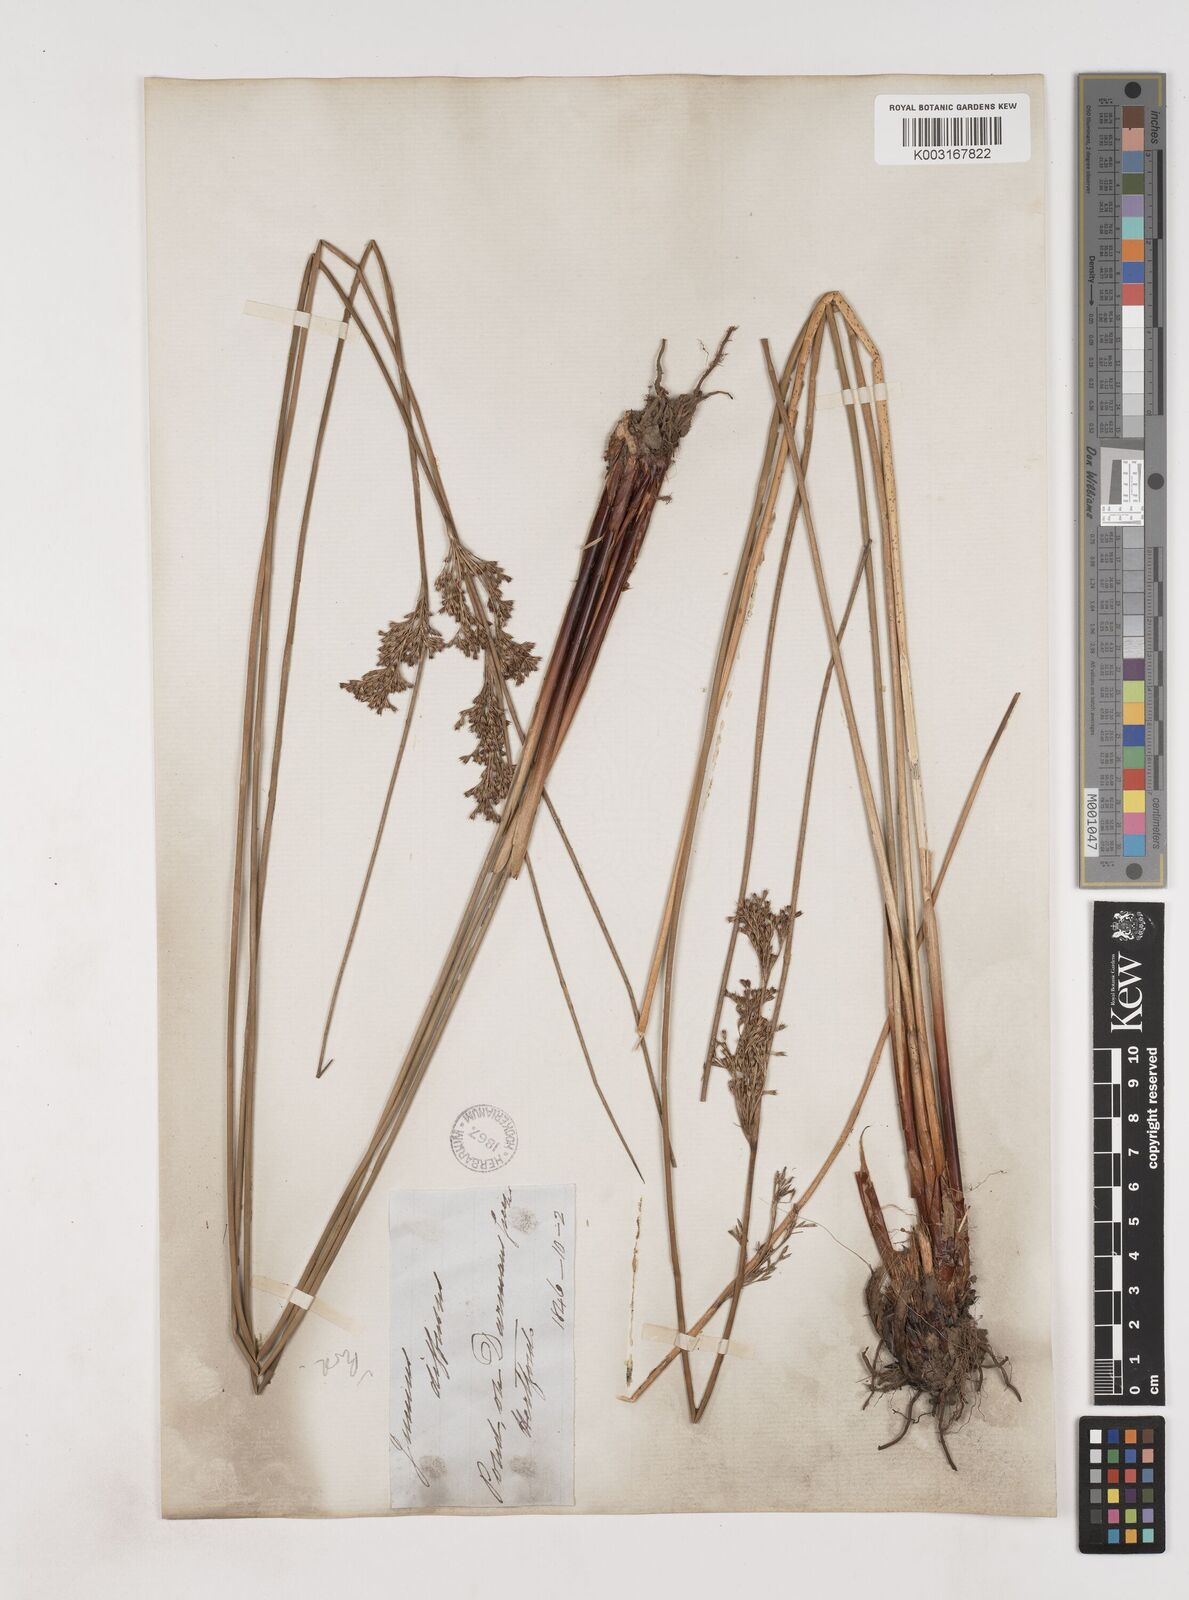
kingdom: Plantae
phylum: Tracheophyta
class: Liliopsida
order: Poales
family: Juncaceae
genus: Juncus
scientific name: Juncus effusus
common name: Soft rush
